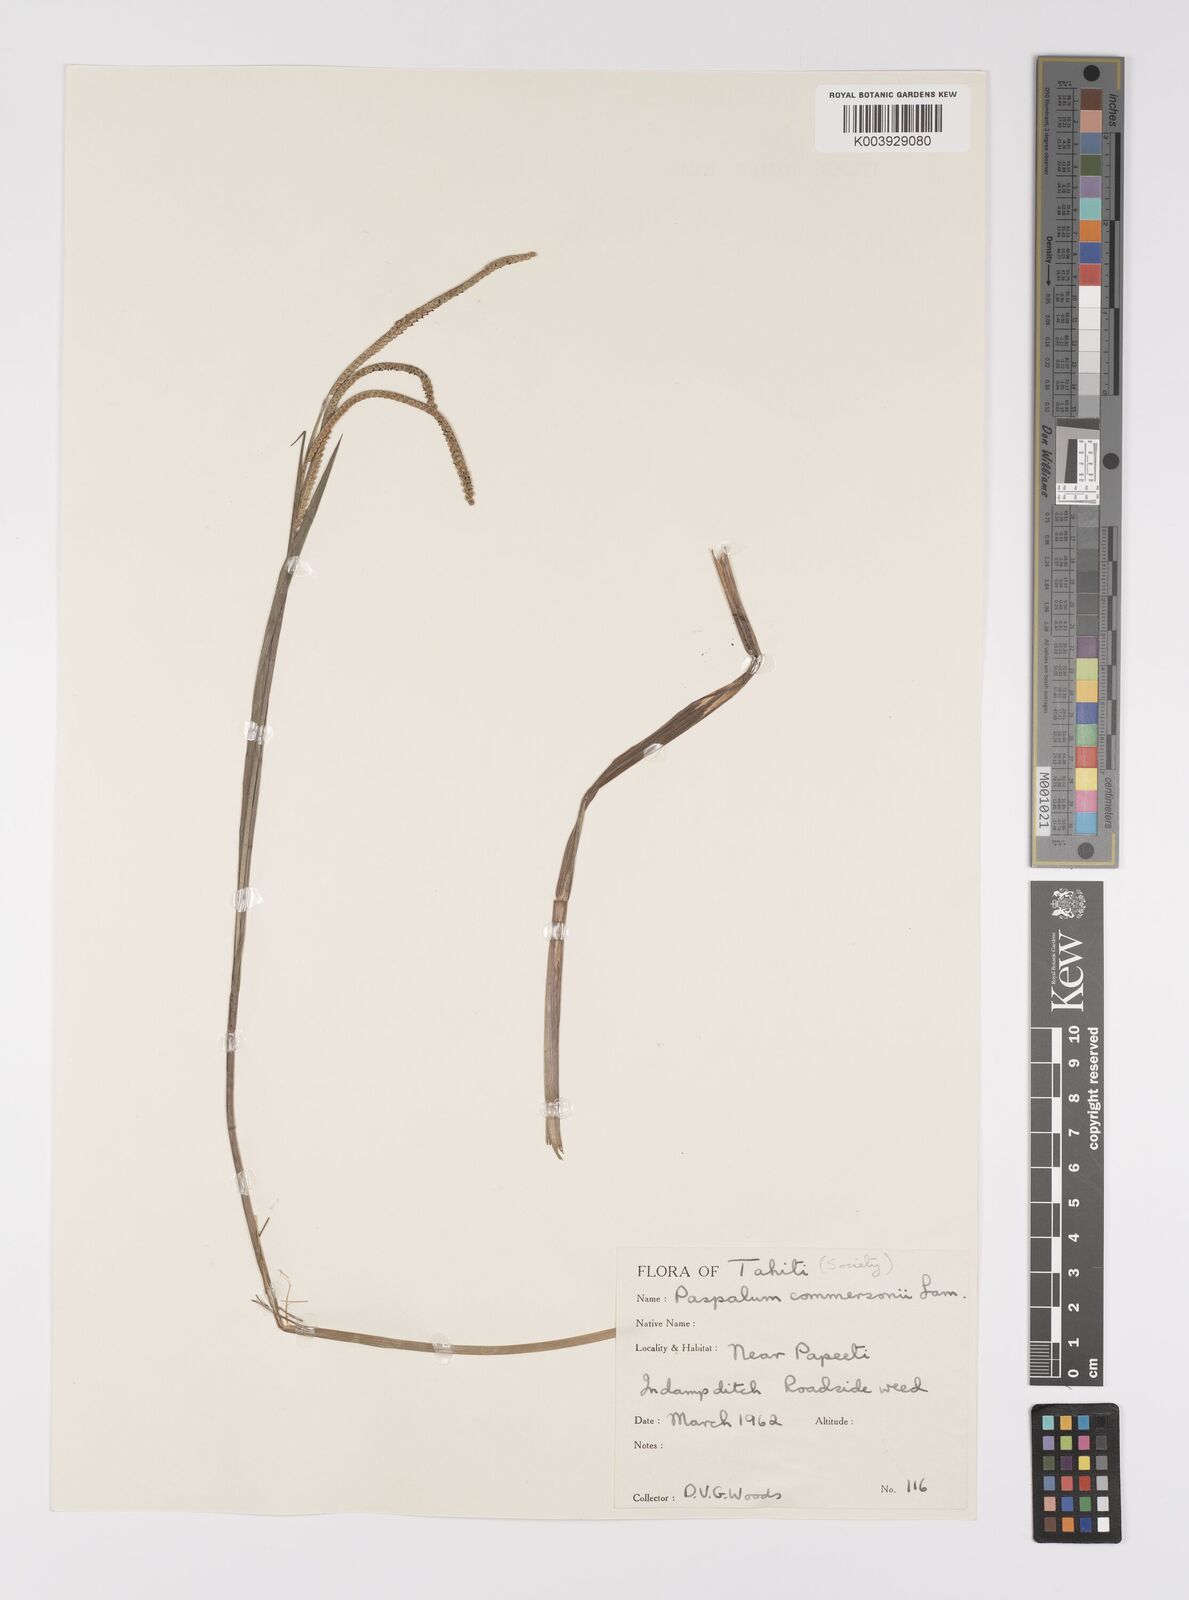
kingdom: Plantae
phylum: Tracheophyta
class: Liliopsida
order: Poales
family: Poaceae
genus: Paspalum
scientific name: Paspalum
